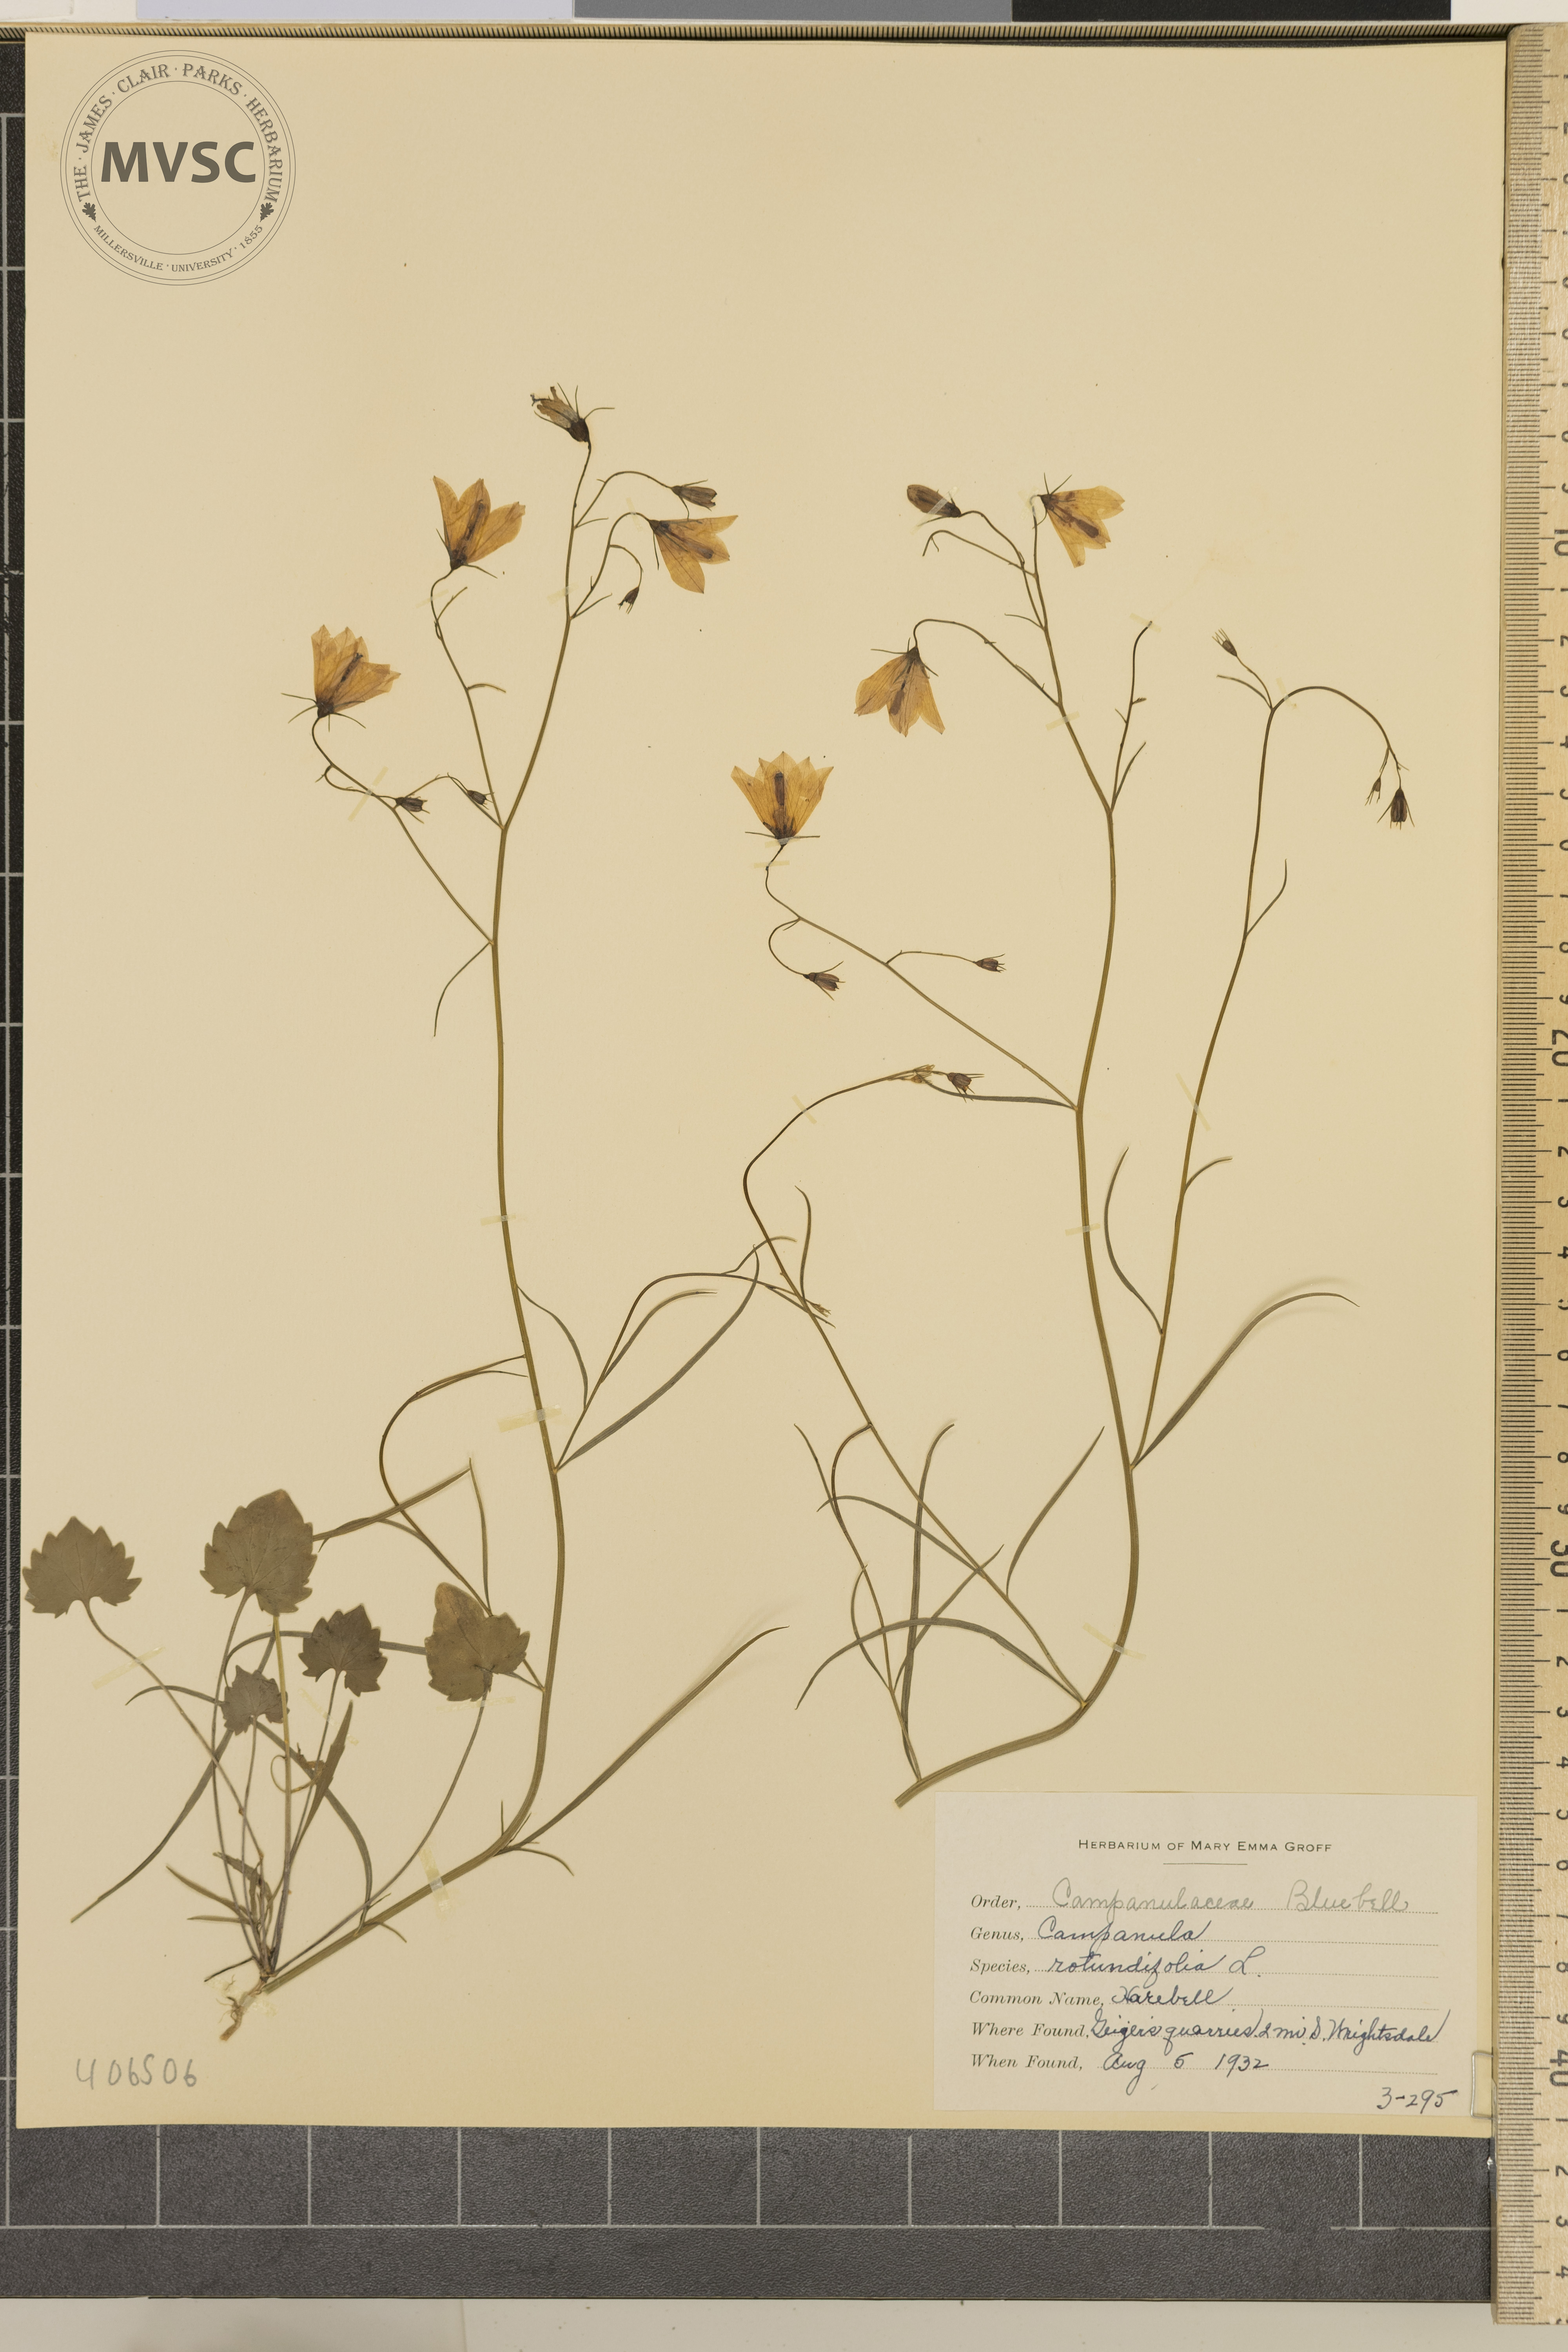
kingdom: Plantae
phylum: Tracheophyta
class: Magnoliopsida
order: Asterales
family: Campanulaceae
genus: Campanula
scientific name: Campanula rotundifolia
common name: Harebell
